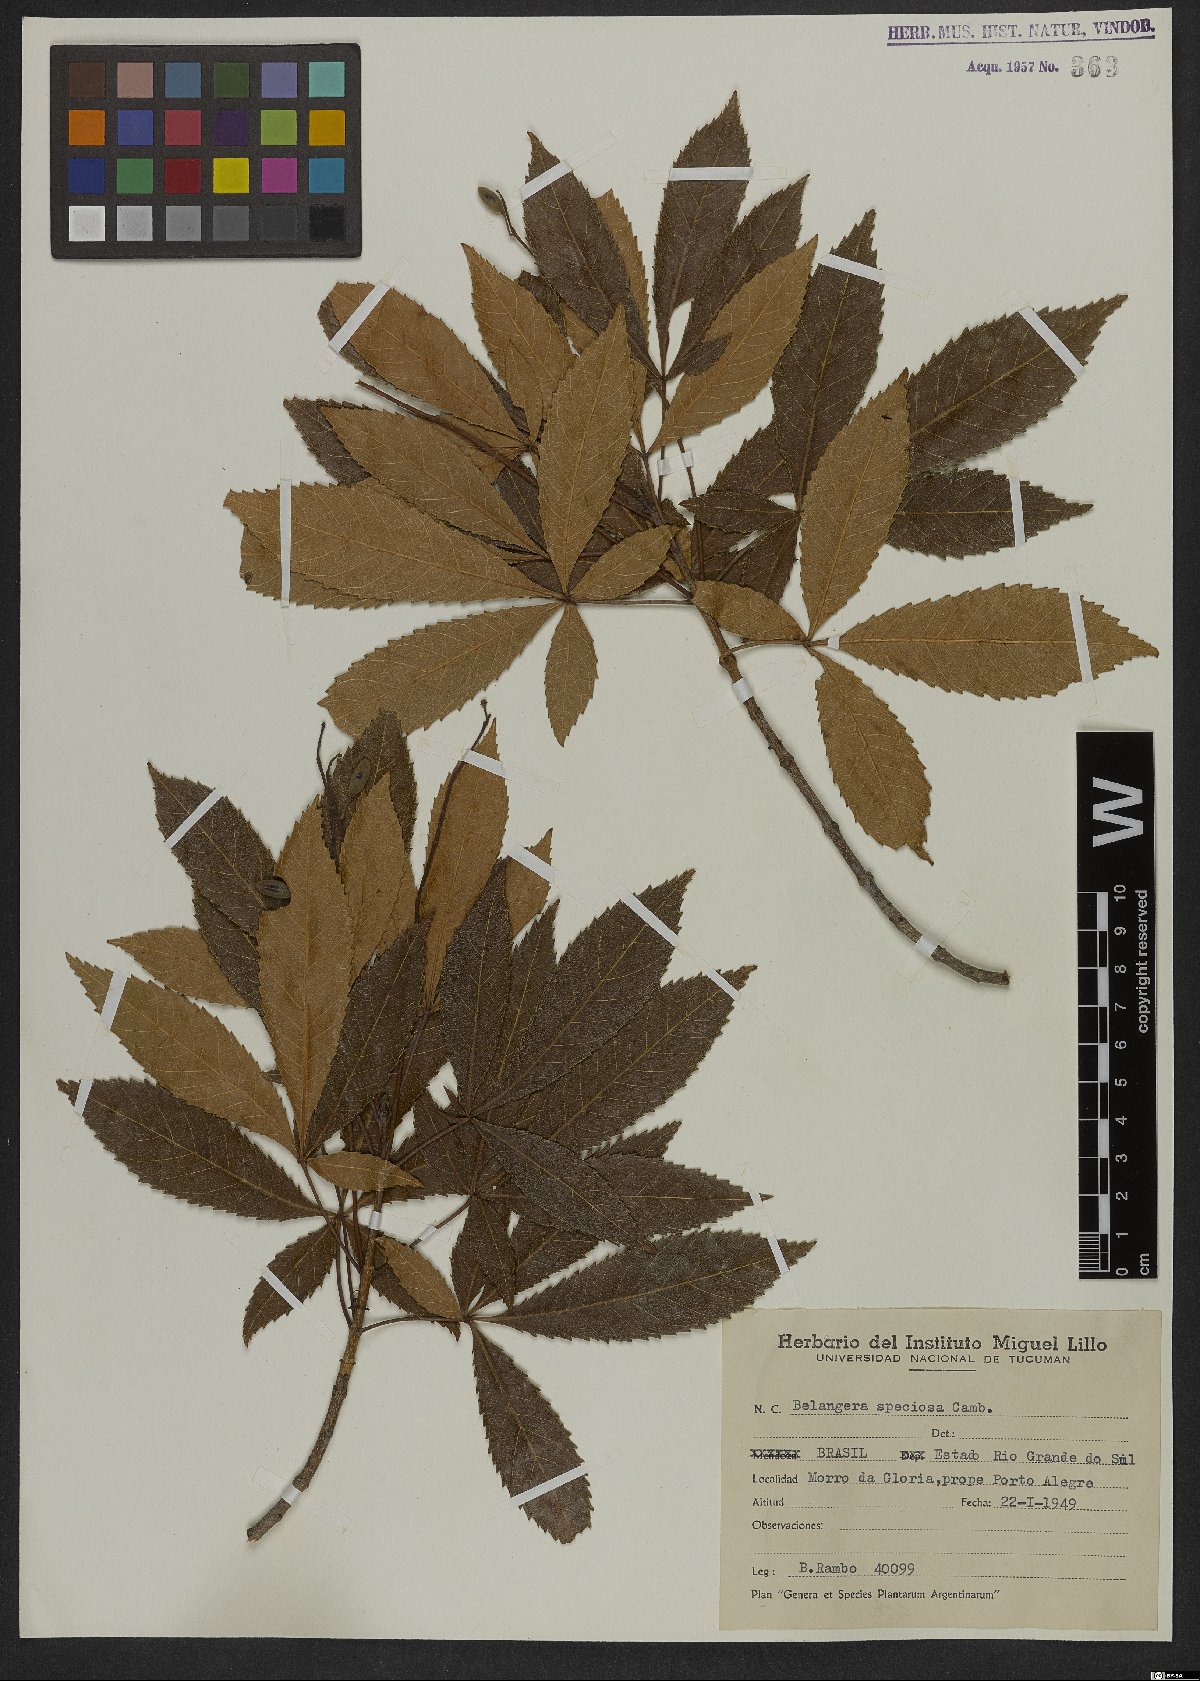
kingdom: Plantae
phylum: Tracheophyta
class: Magnoliopsida
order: Oxalidales
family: Cunoniaceae
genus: Lamanonia
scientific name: Lamanonia speciosa
